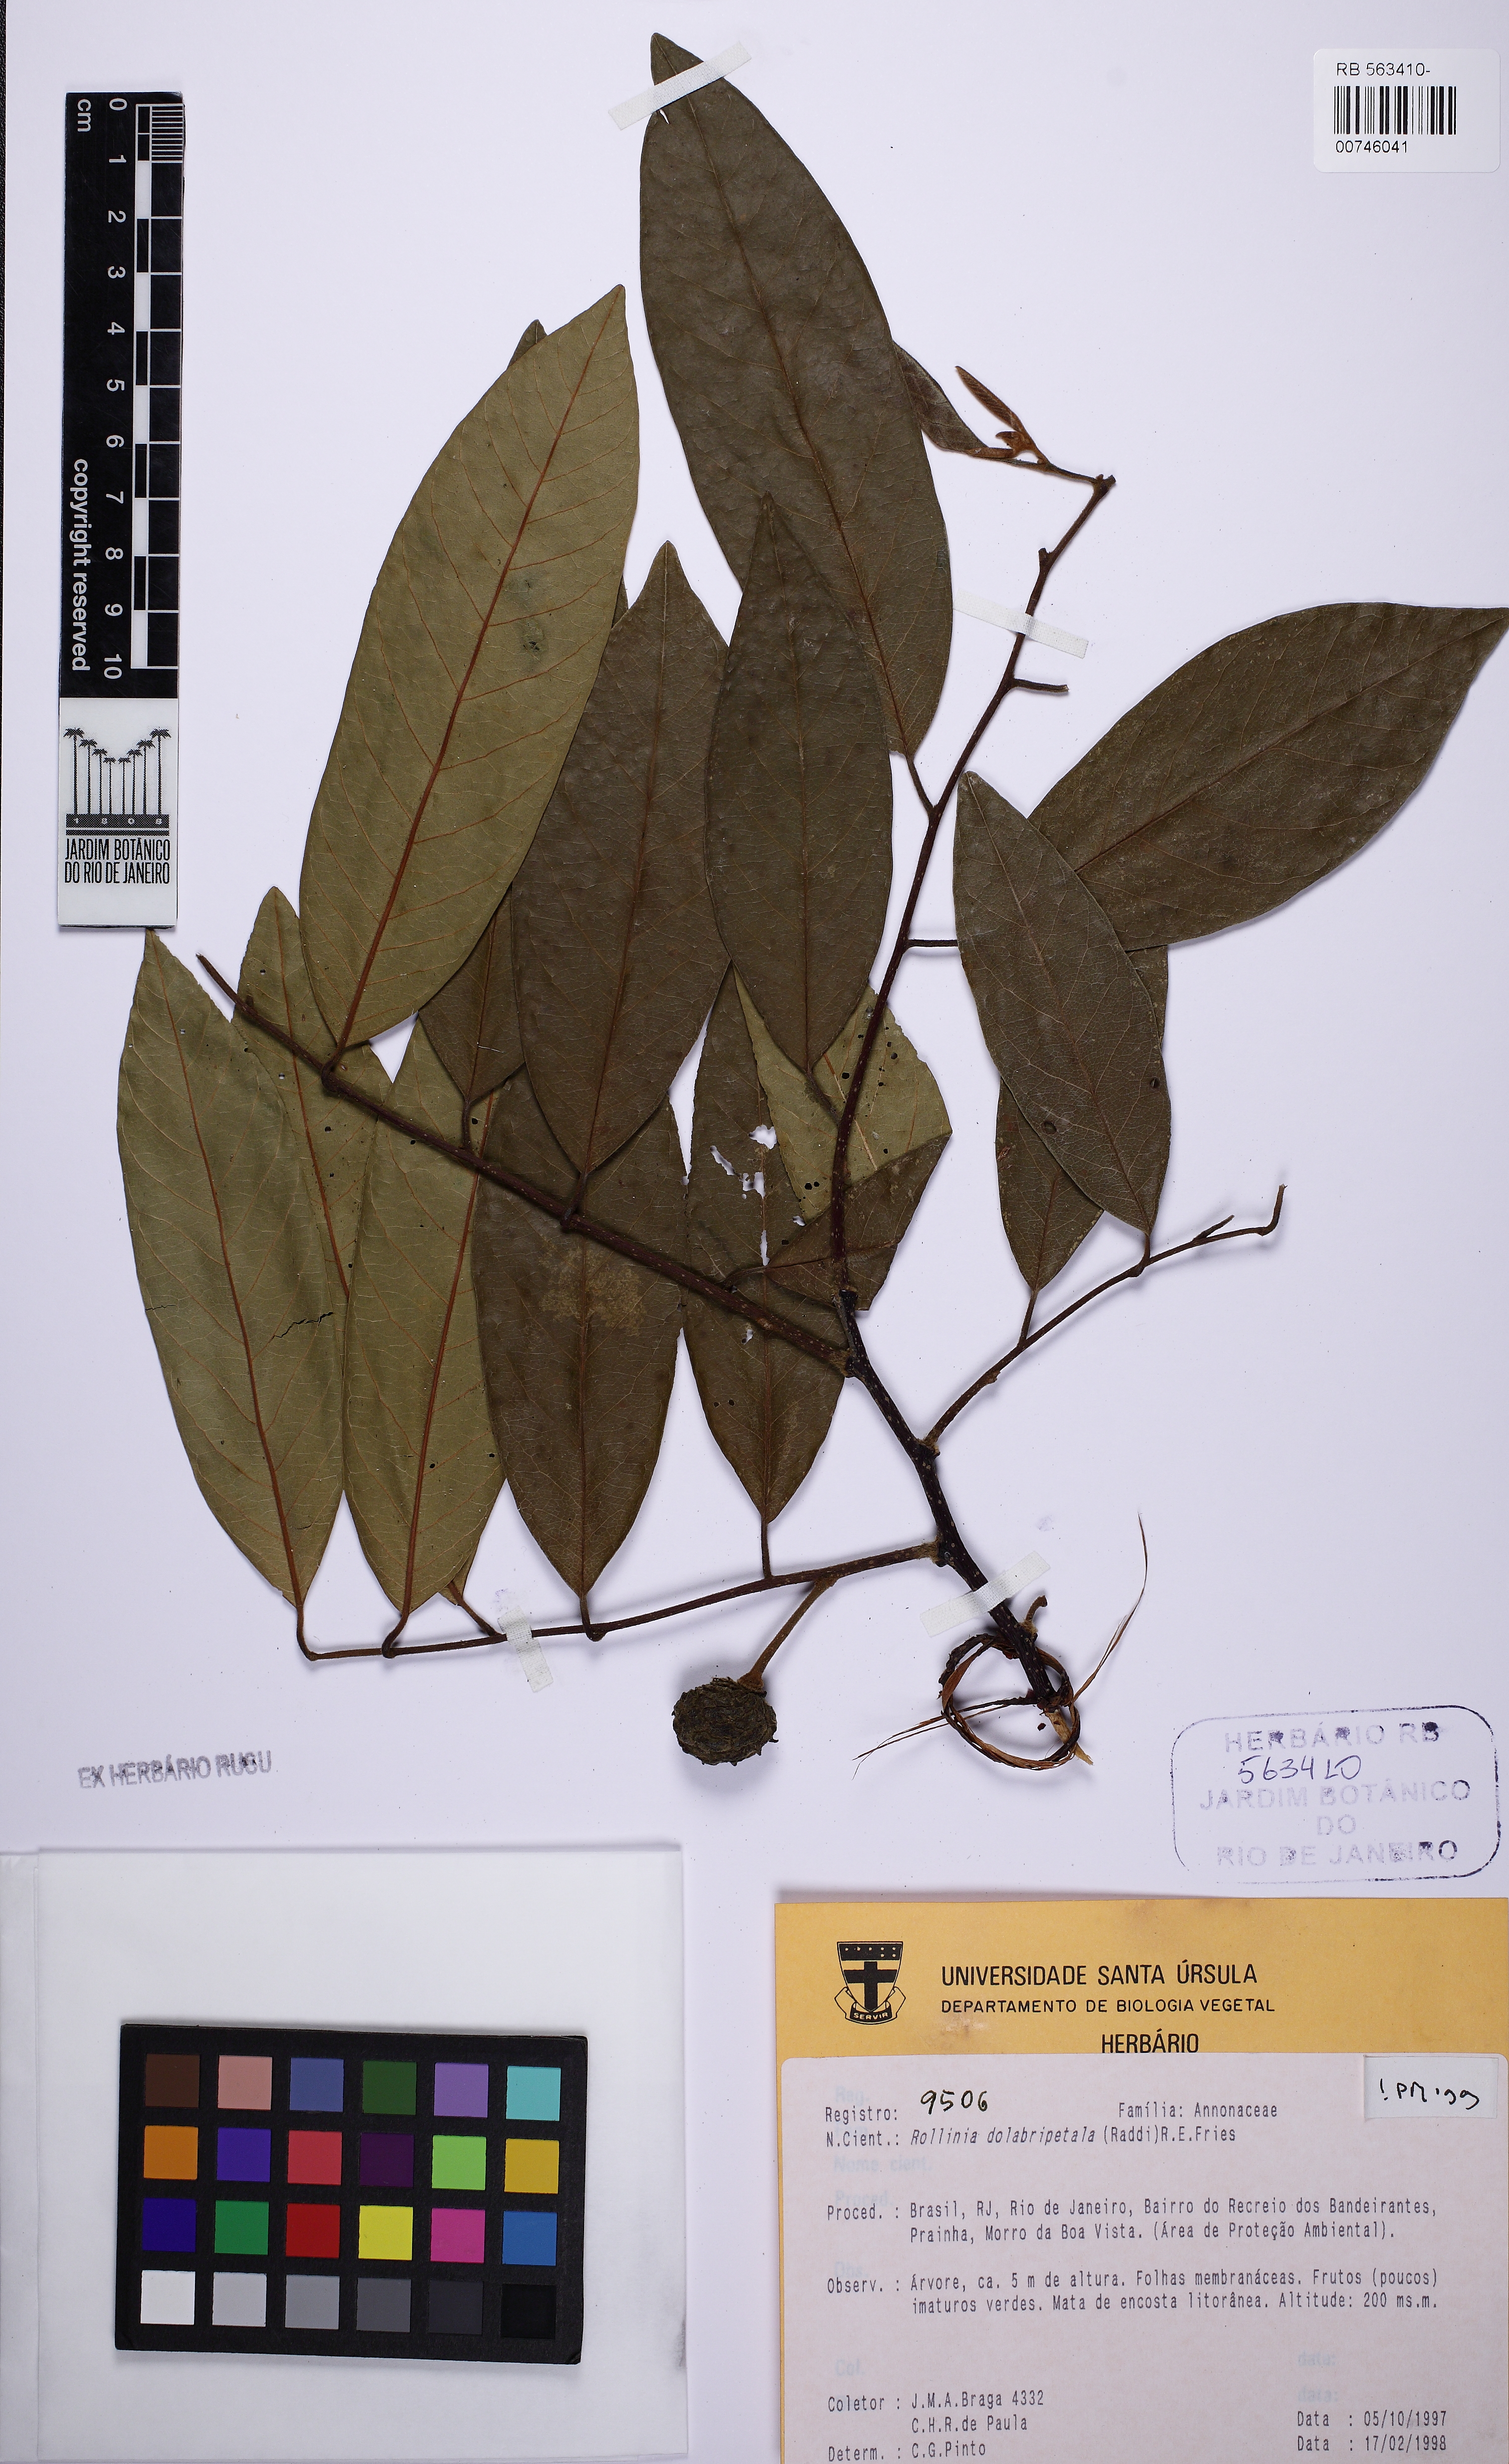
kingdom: Plantae
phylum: Tracheophyta
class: Magnoliopsida
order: Magnoliales
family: Annonaceae
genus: Annona
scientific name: Annona dolabripetala
